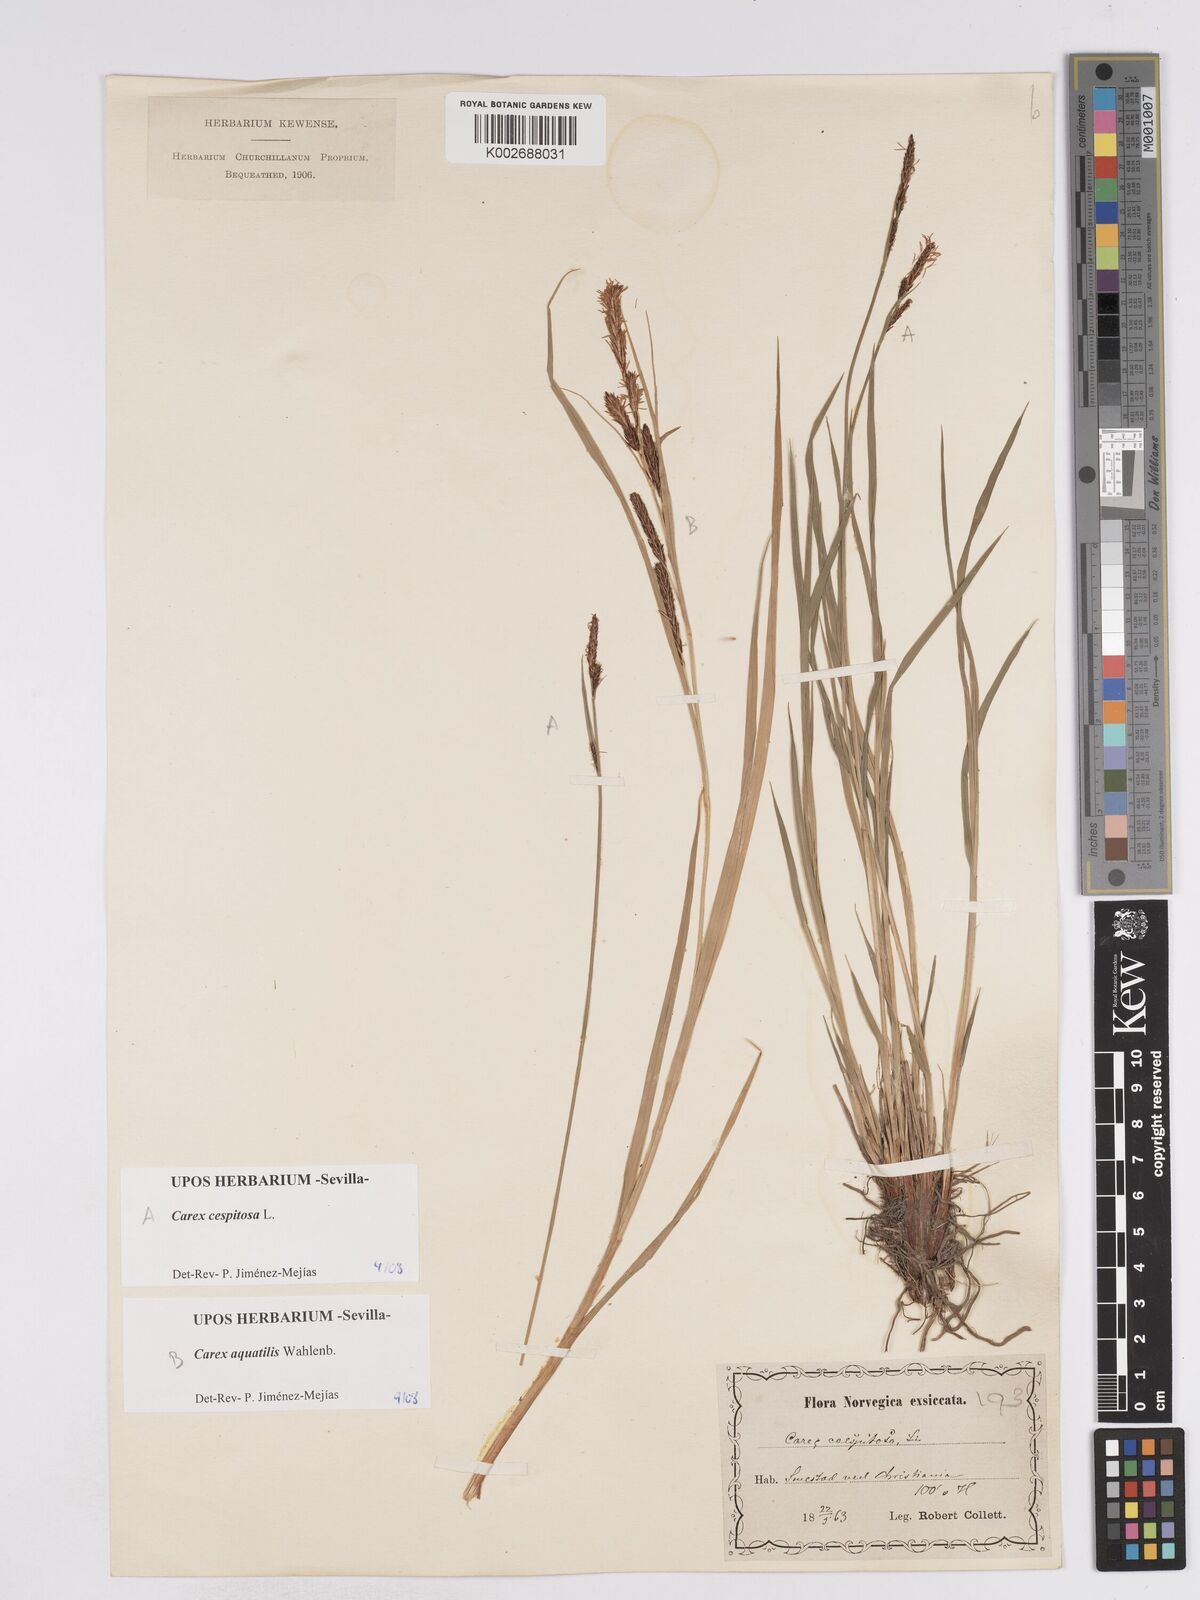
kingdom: Plantae
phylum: Tracheophyta
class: Liliopsida
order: Poales
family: Cyperaceae
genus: Carex
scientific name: Carex nigra
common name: Common sedge
